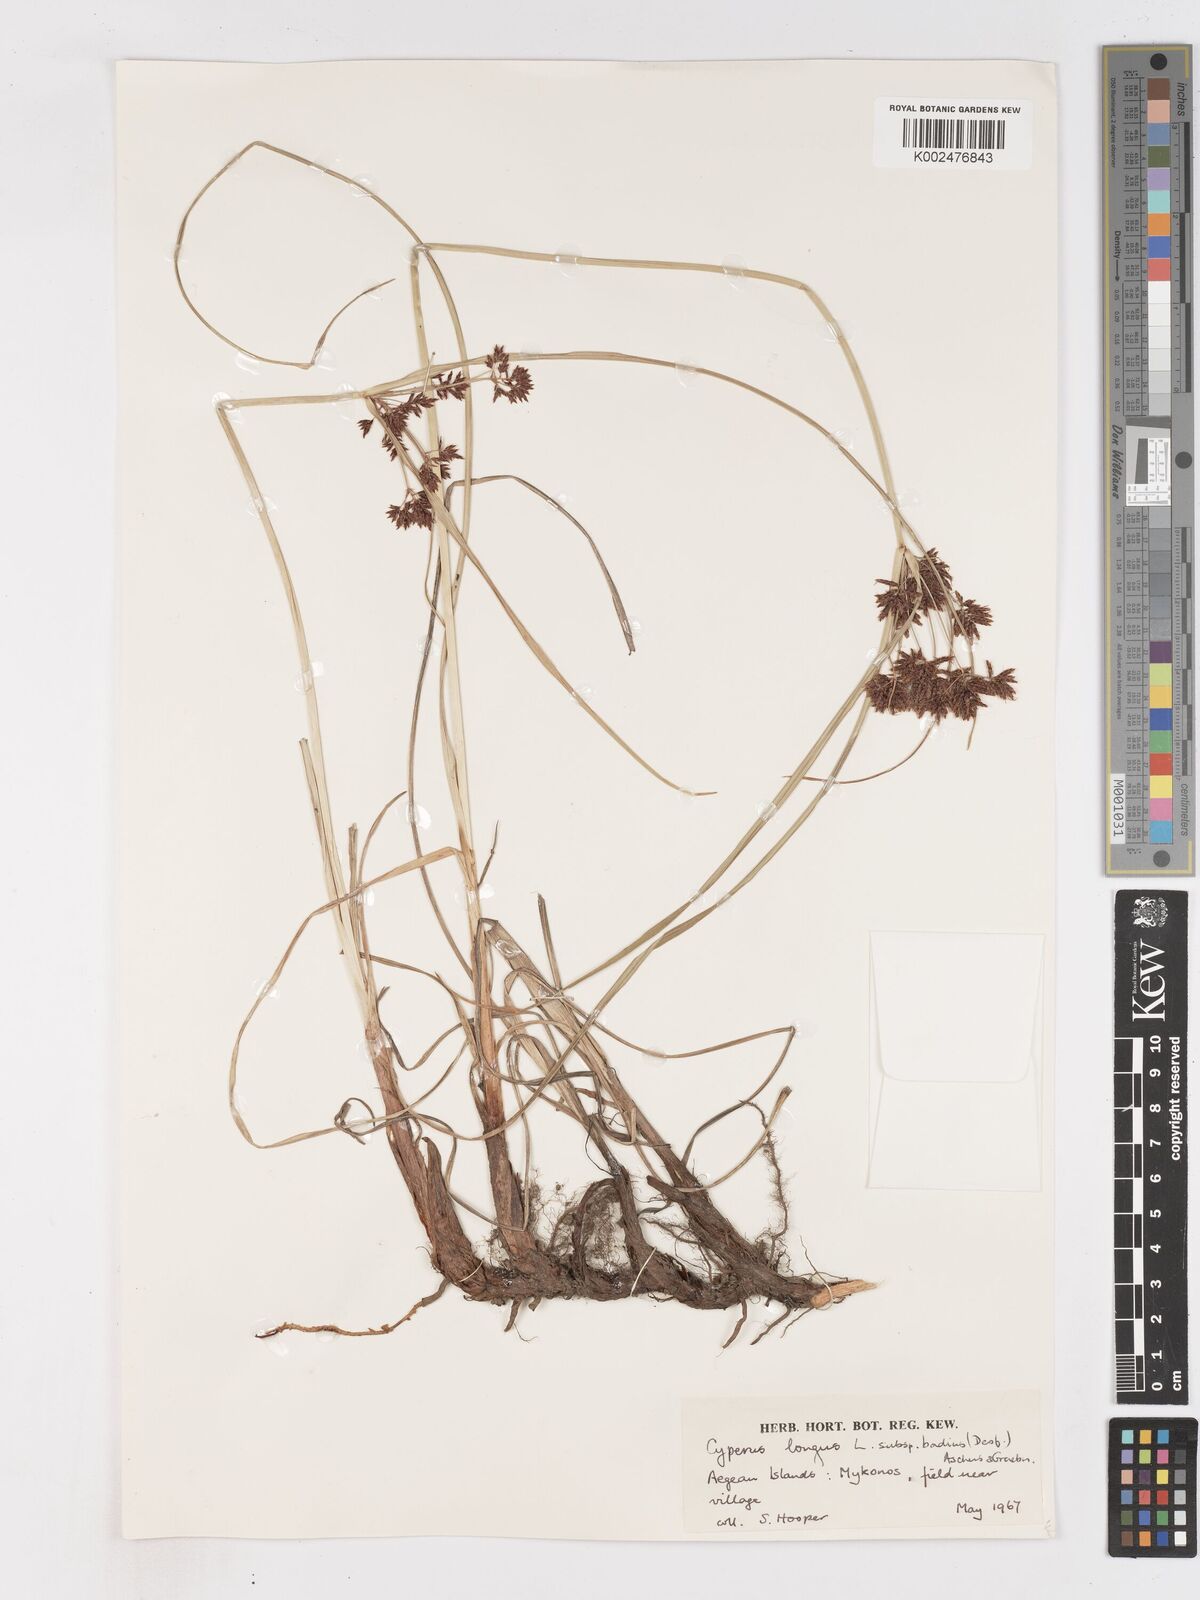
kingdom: Plantae
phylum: Tracheophyta
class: Liliopsida
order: Poales
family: Cyperaceae
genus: Cyperus
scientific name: Cyperus longus
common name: Galingale
